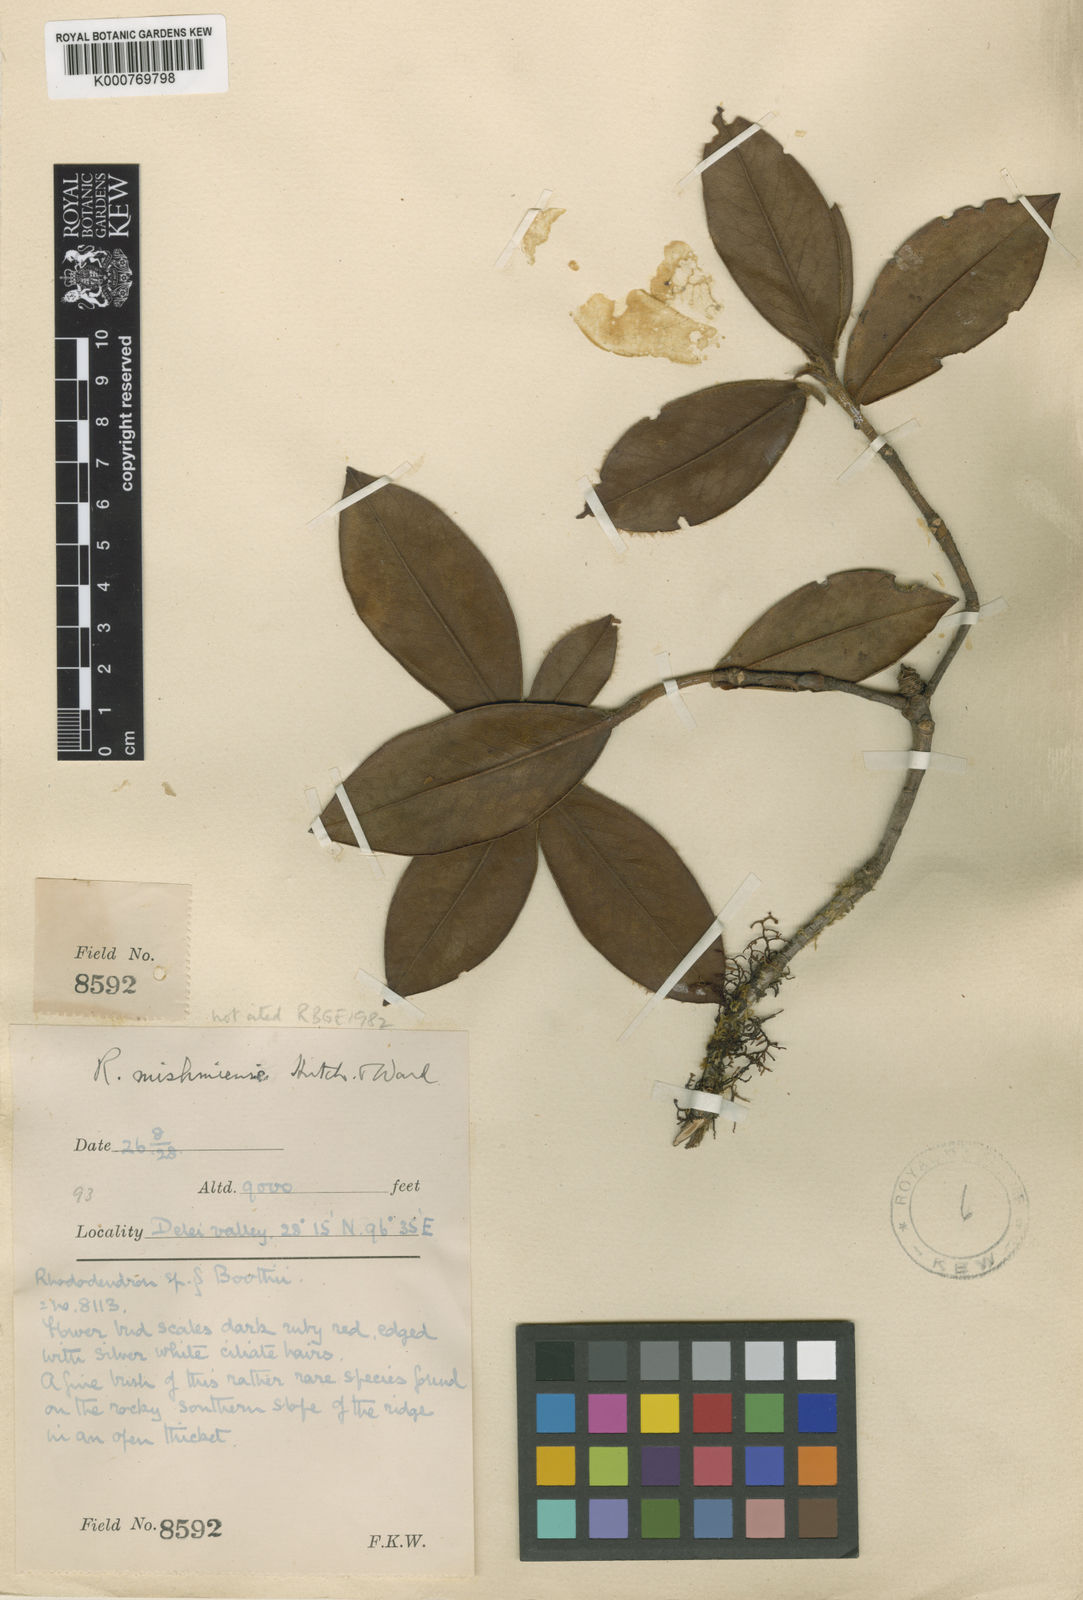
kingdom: Plantae
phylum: Tracheophyta
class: Magnoliopsida
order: Ericales
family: Ericaceae
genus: Rhododendron
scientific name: Rhododendron boothii
